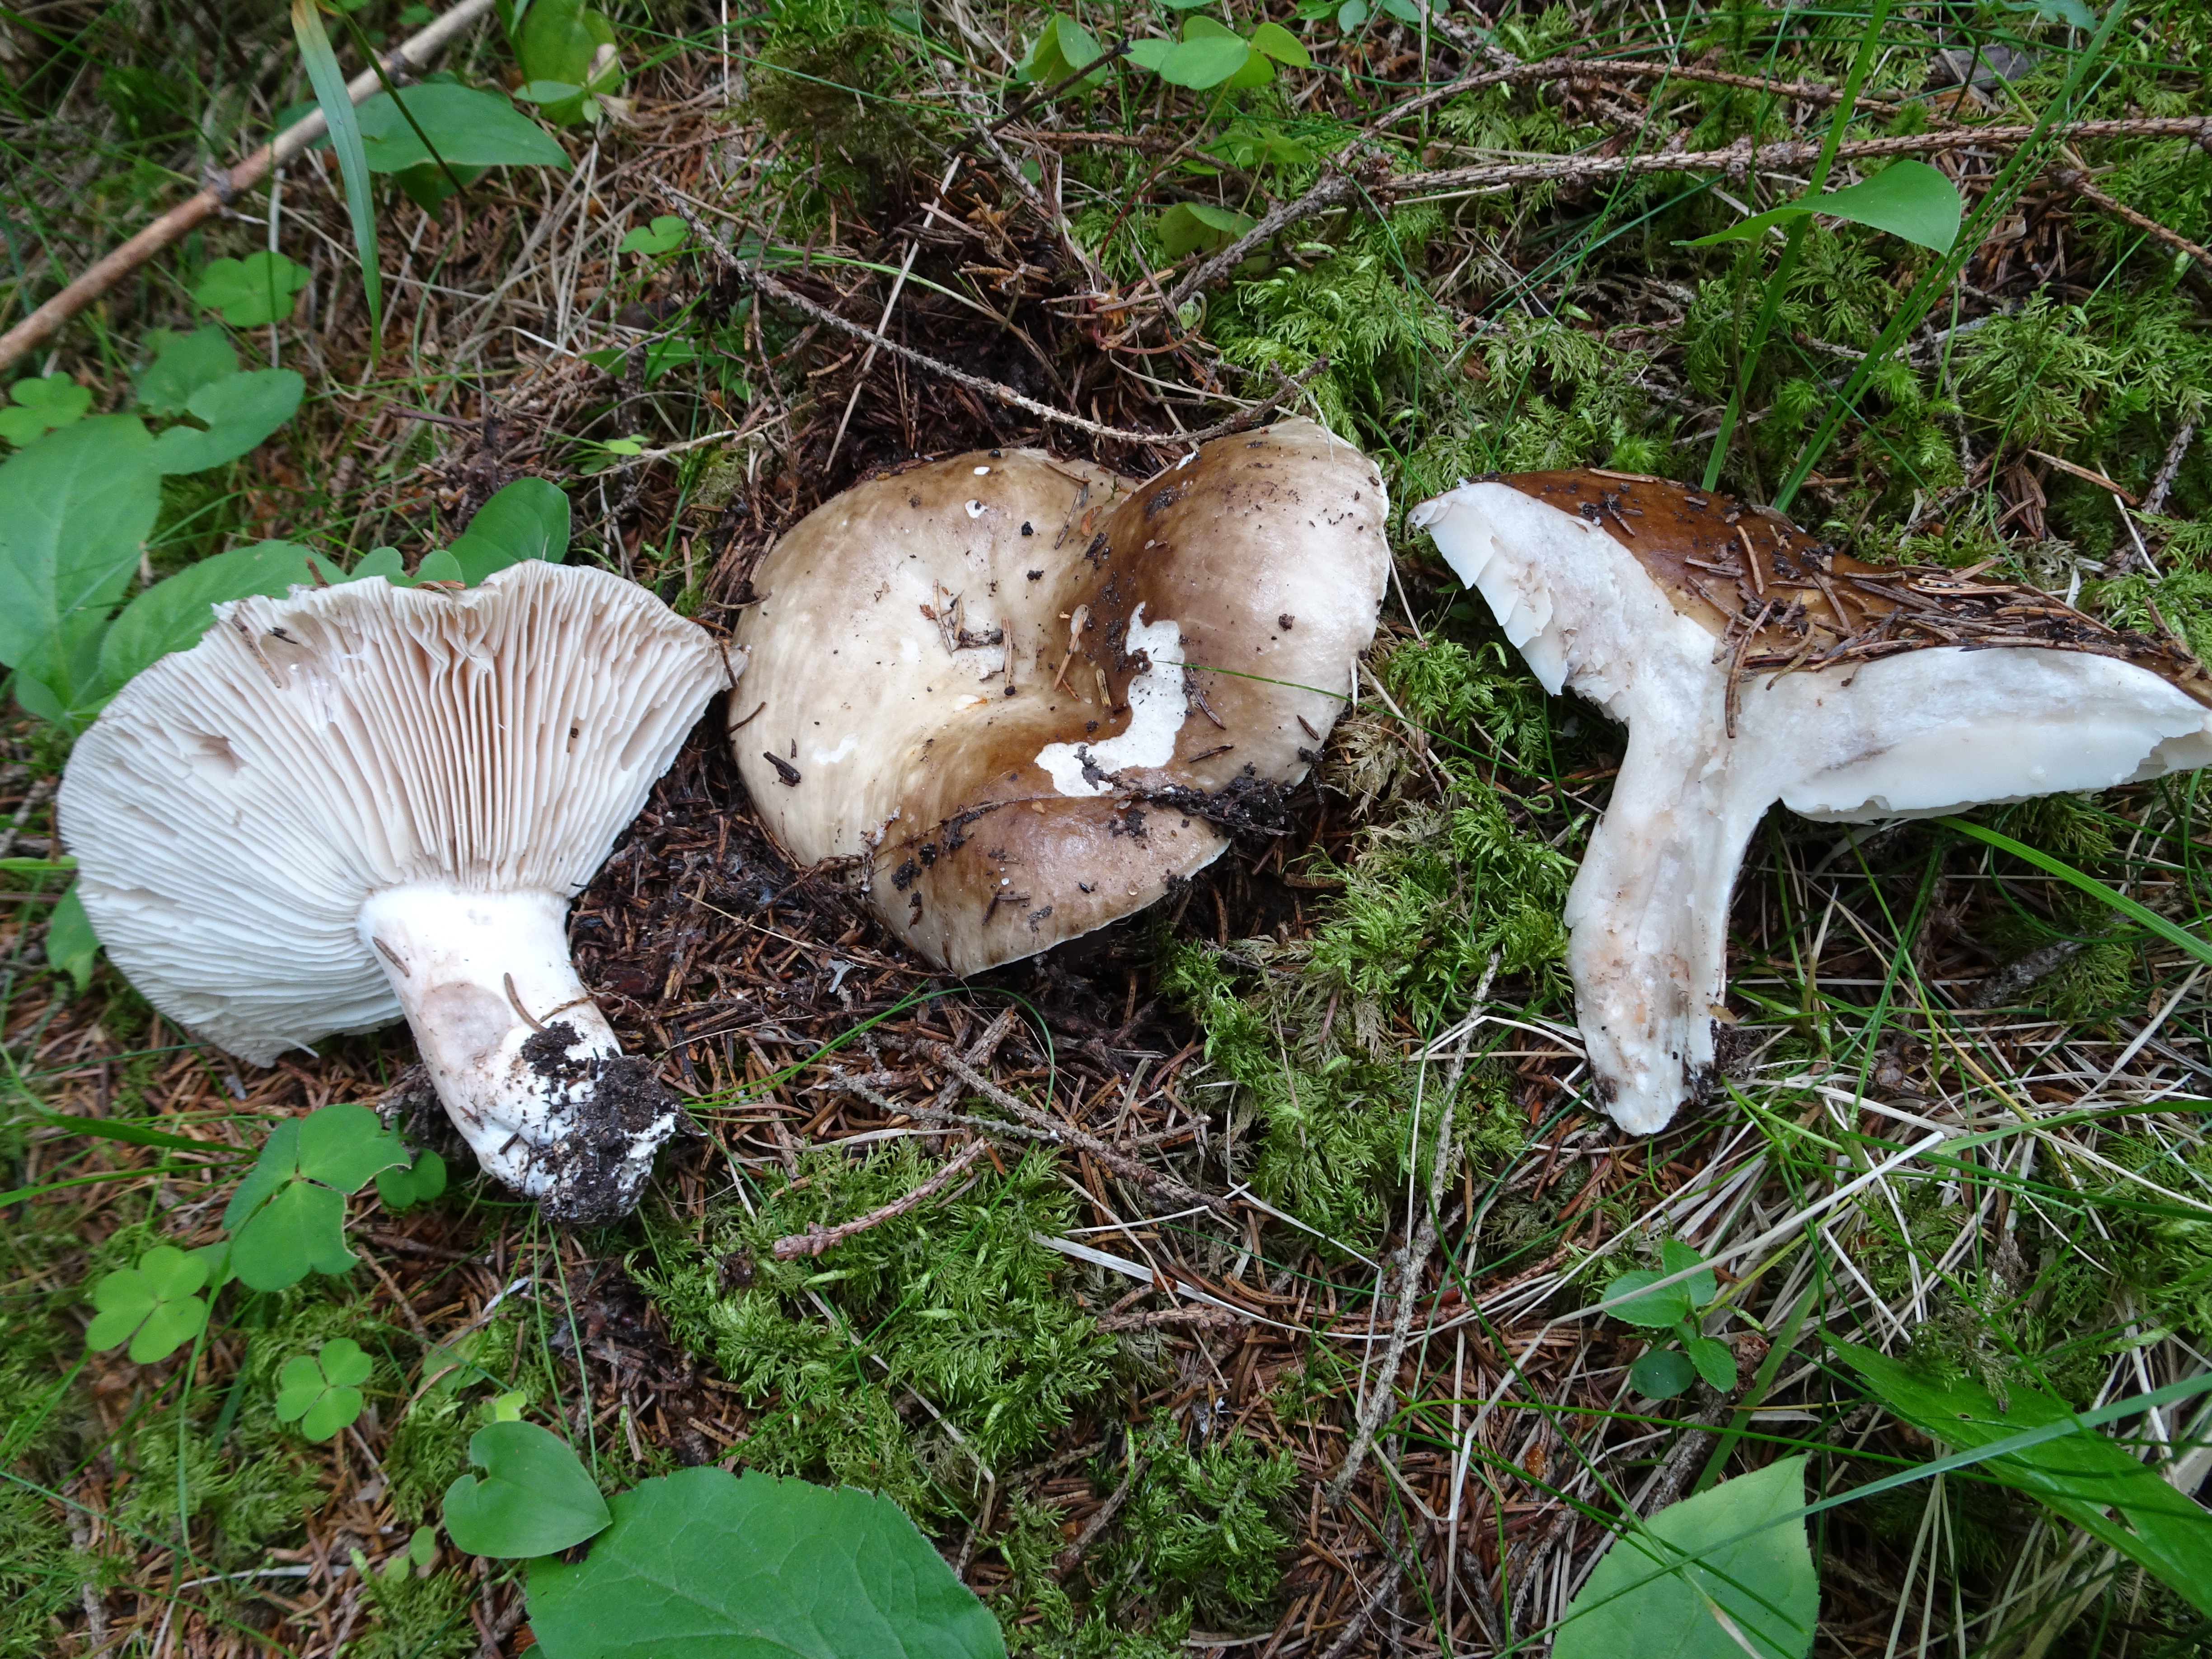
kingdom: Fungi
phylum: Basidiomycota
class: Agaricomycetes
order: Russulales
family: Russulaceae
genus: Russula
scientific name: Russula adusta
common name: Winecork brittlegill
